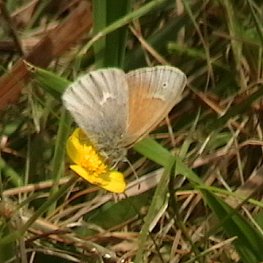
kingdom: Animalia
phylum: Arthropoda
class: Insecta
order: Lepidoptera
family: Nymphalidae
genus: Coenonympha
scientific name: Coenonympha tullia
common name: Large Heath
